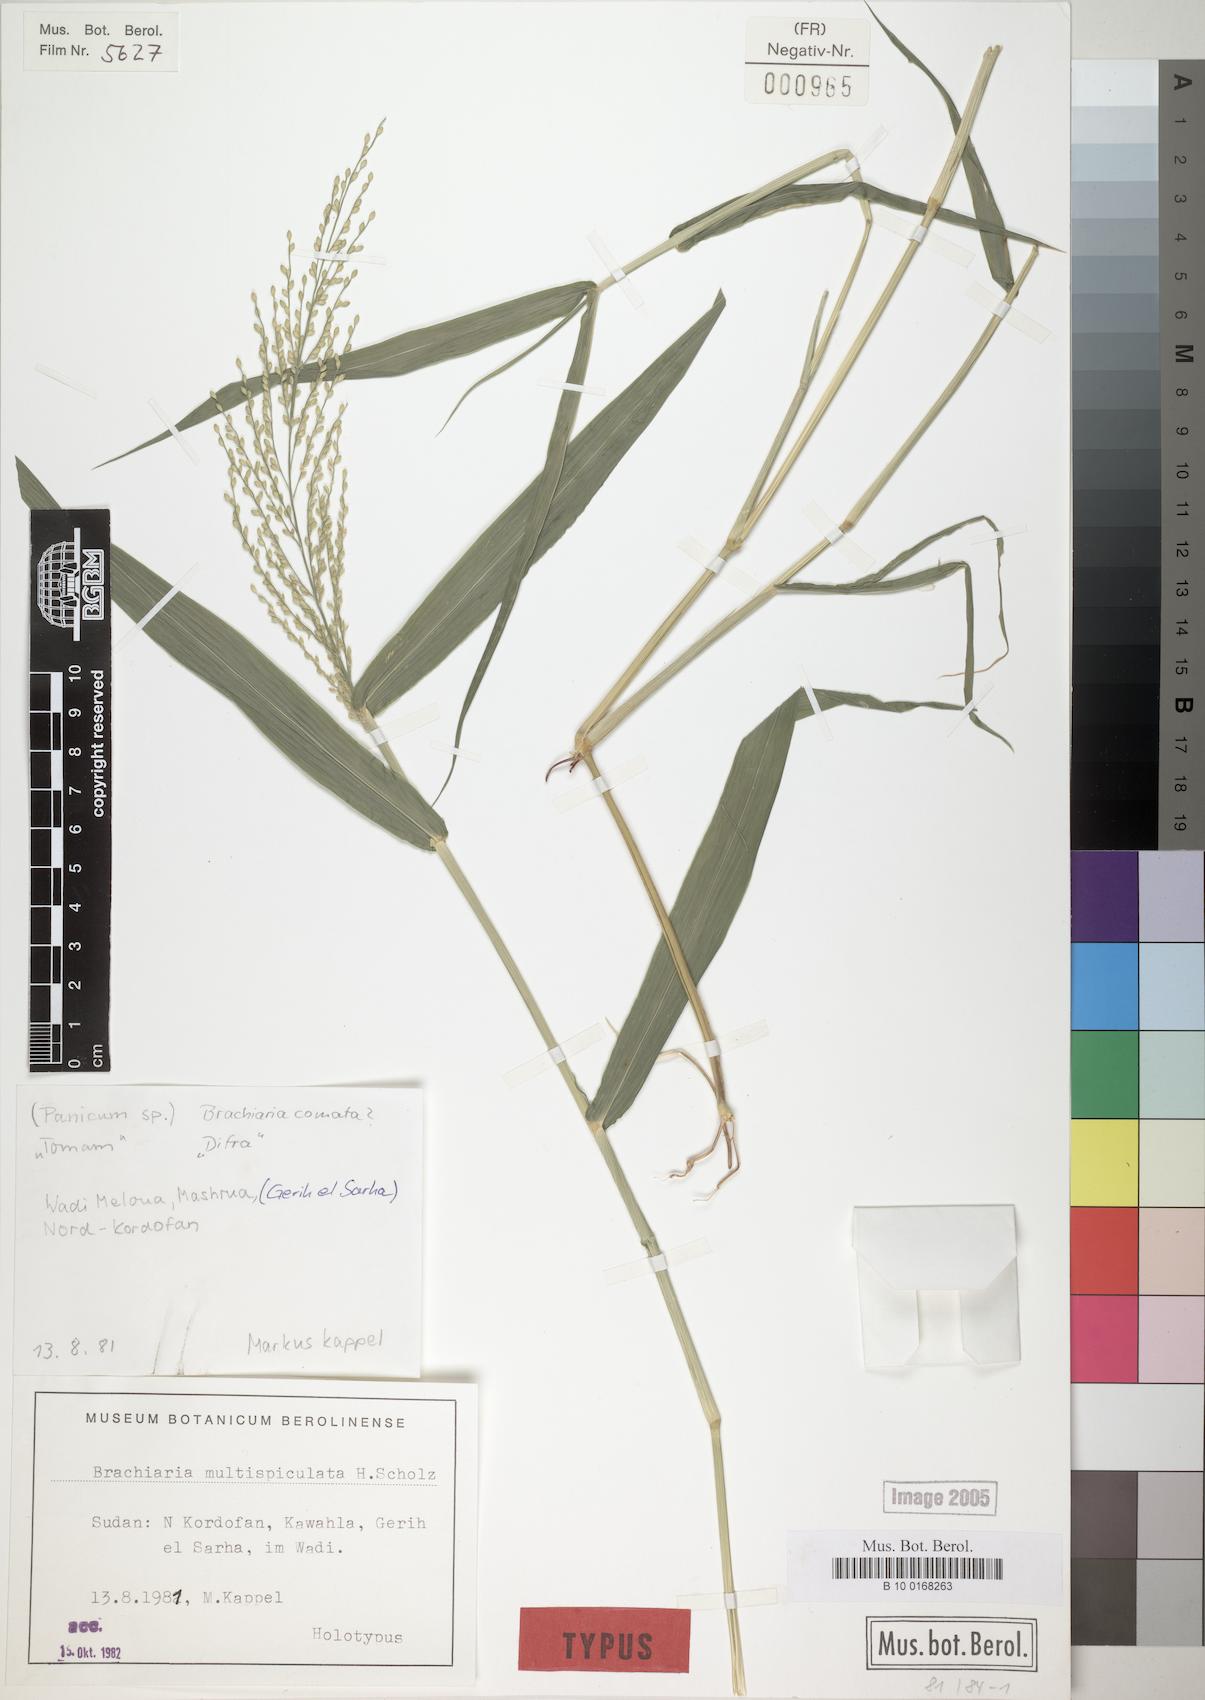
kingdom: Plantae
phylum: Tracheophyta
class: Liliopsida
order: Poales
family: Poaceae
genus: Urochloa
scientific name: Urochloa ramosa
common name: Browntop millet
